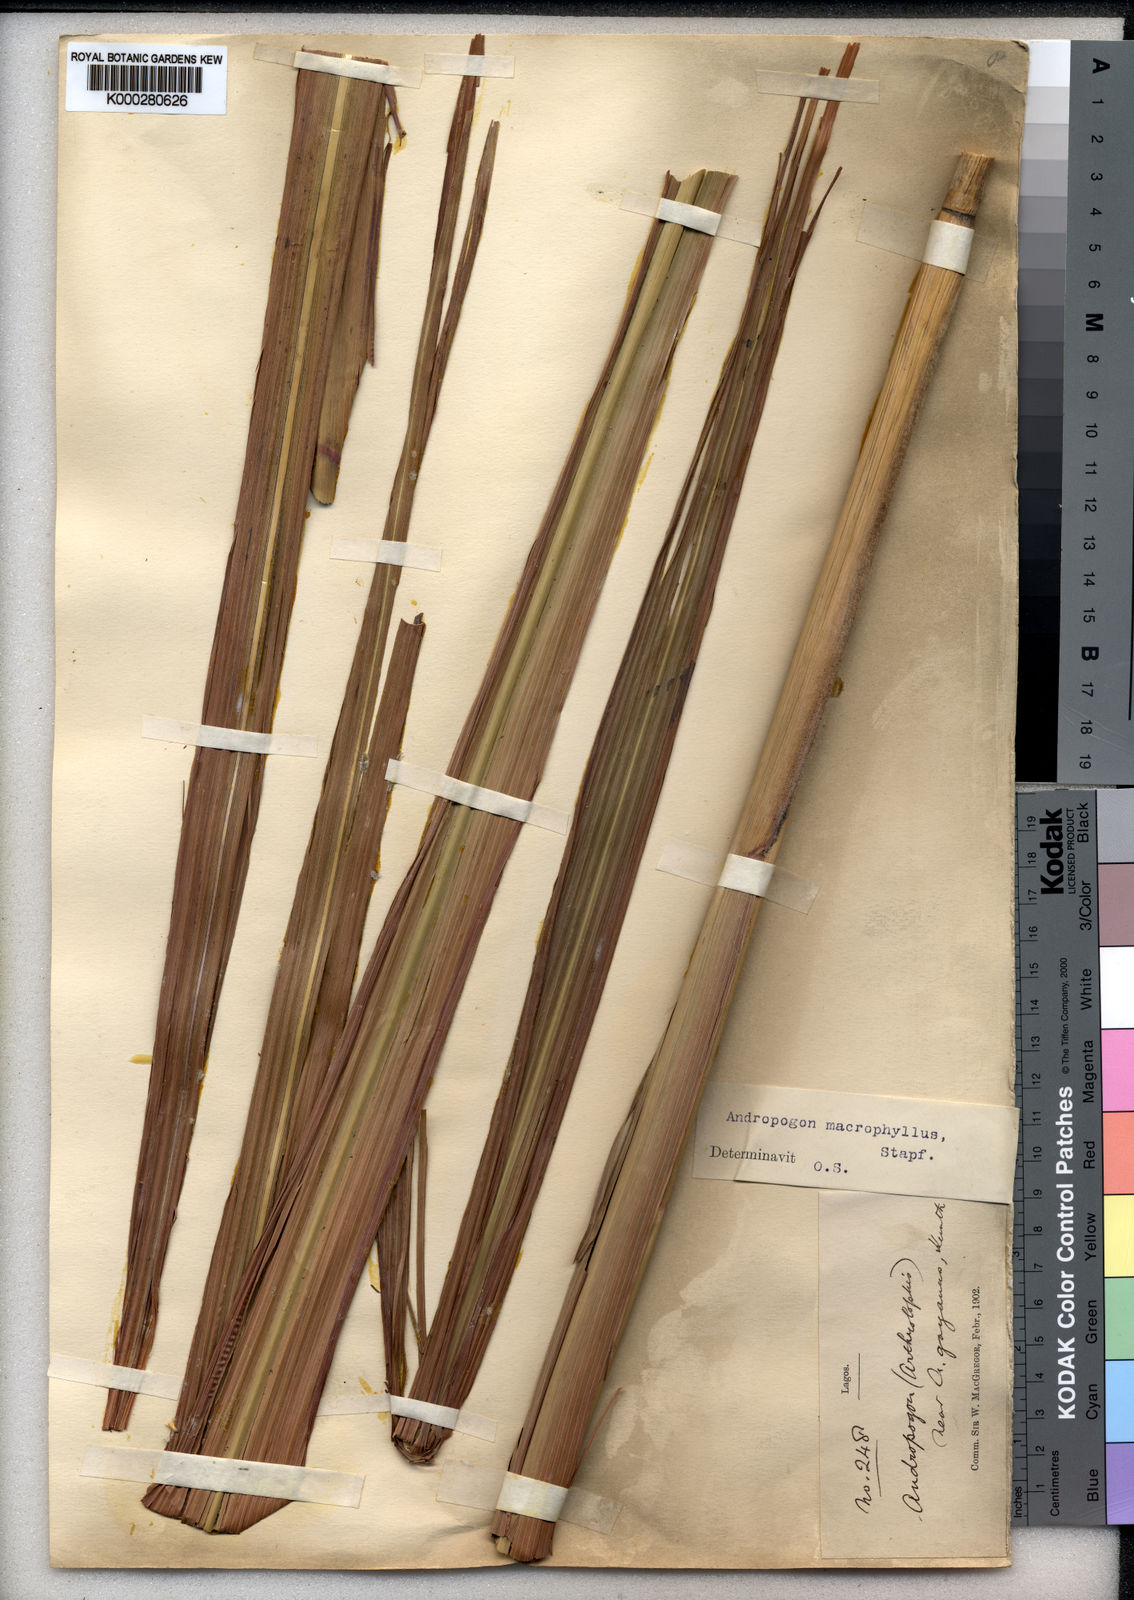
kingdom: Plantae
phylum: Tracheophyta
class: Liliopsida
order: Poales
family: Poaceae
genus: Andropogon
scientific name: Andropogon macrophyllus
